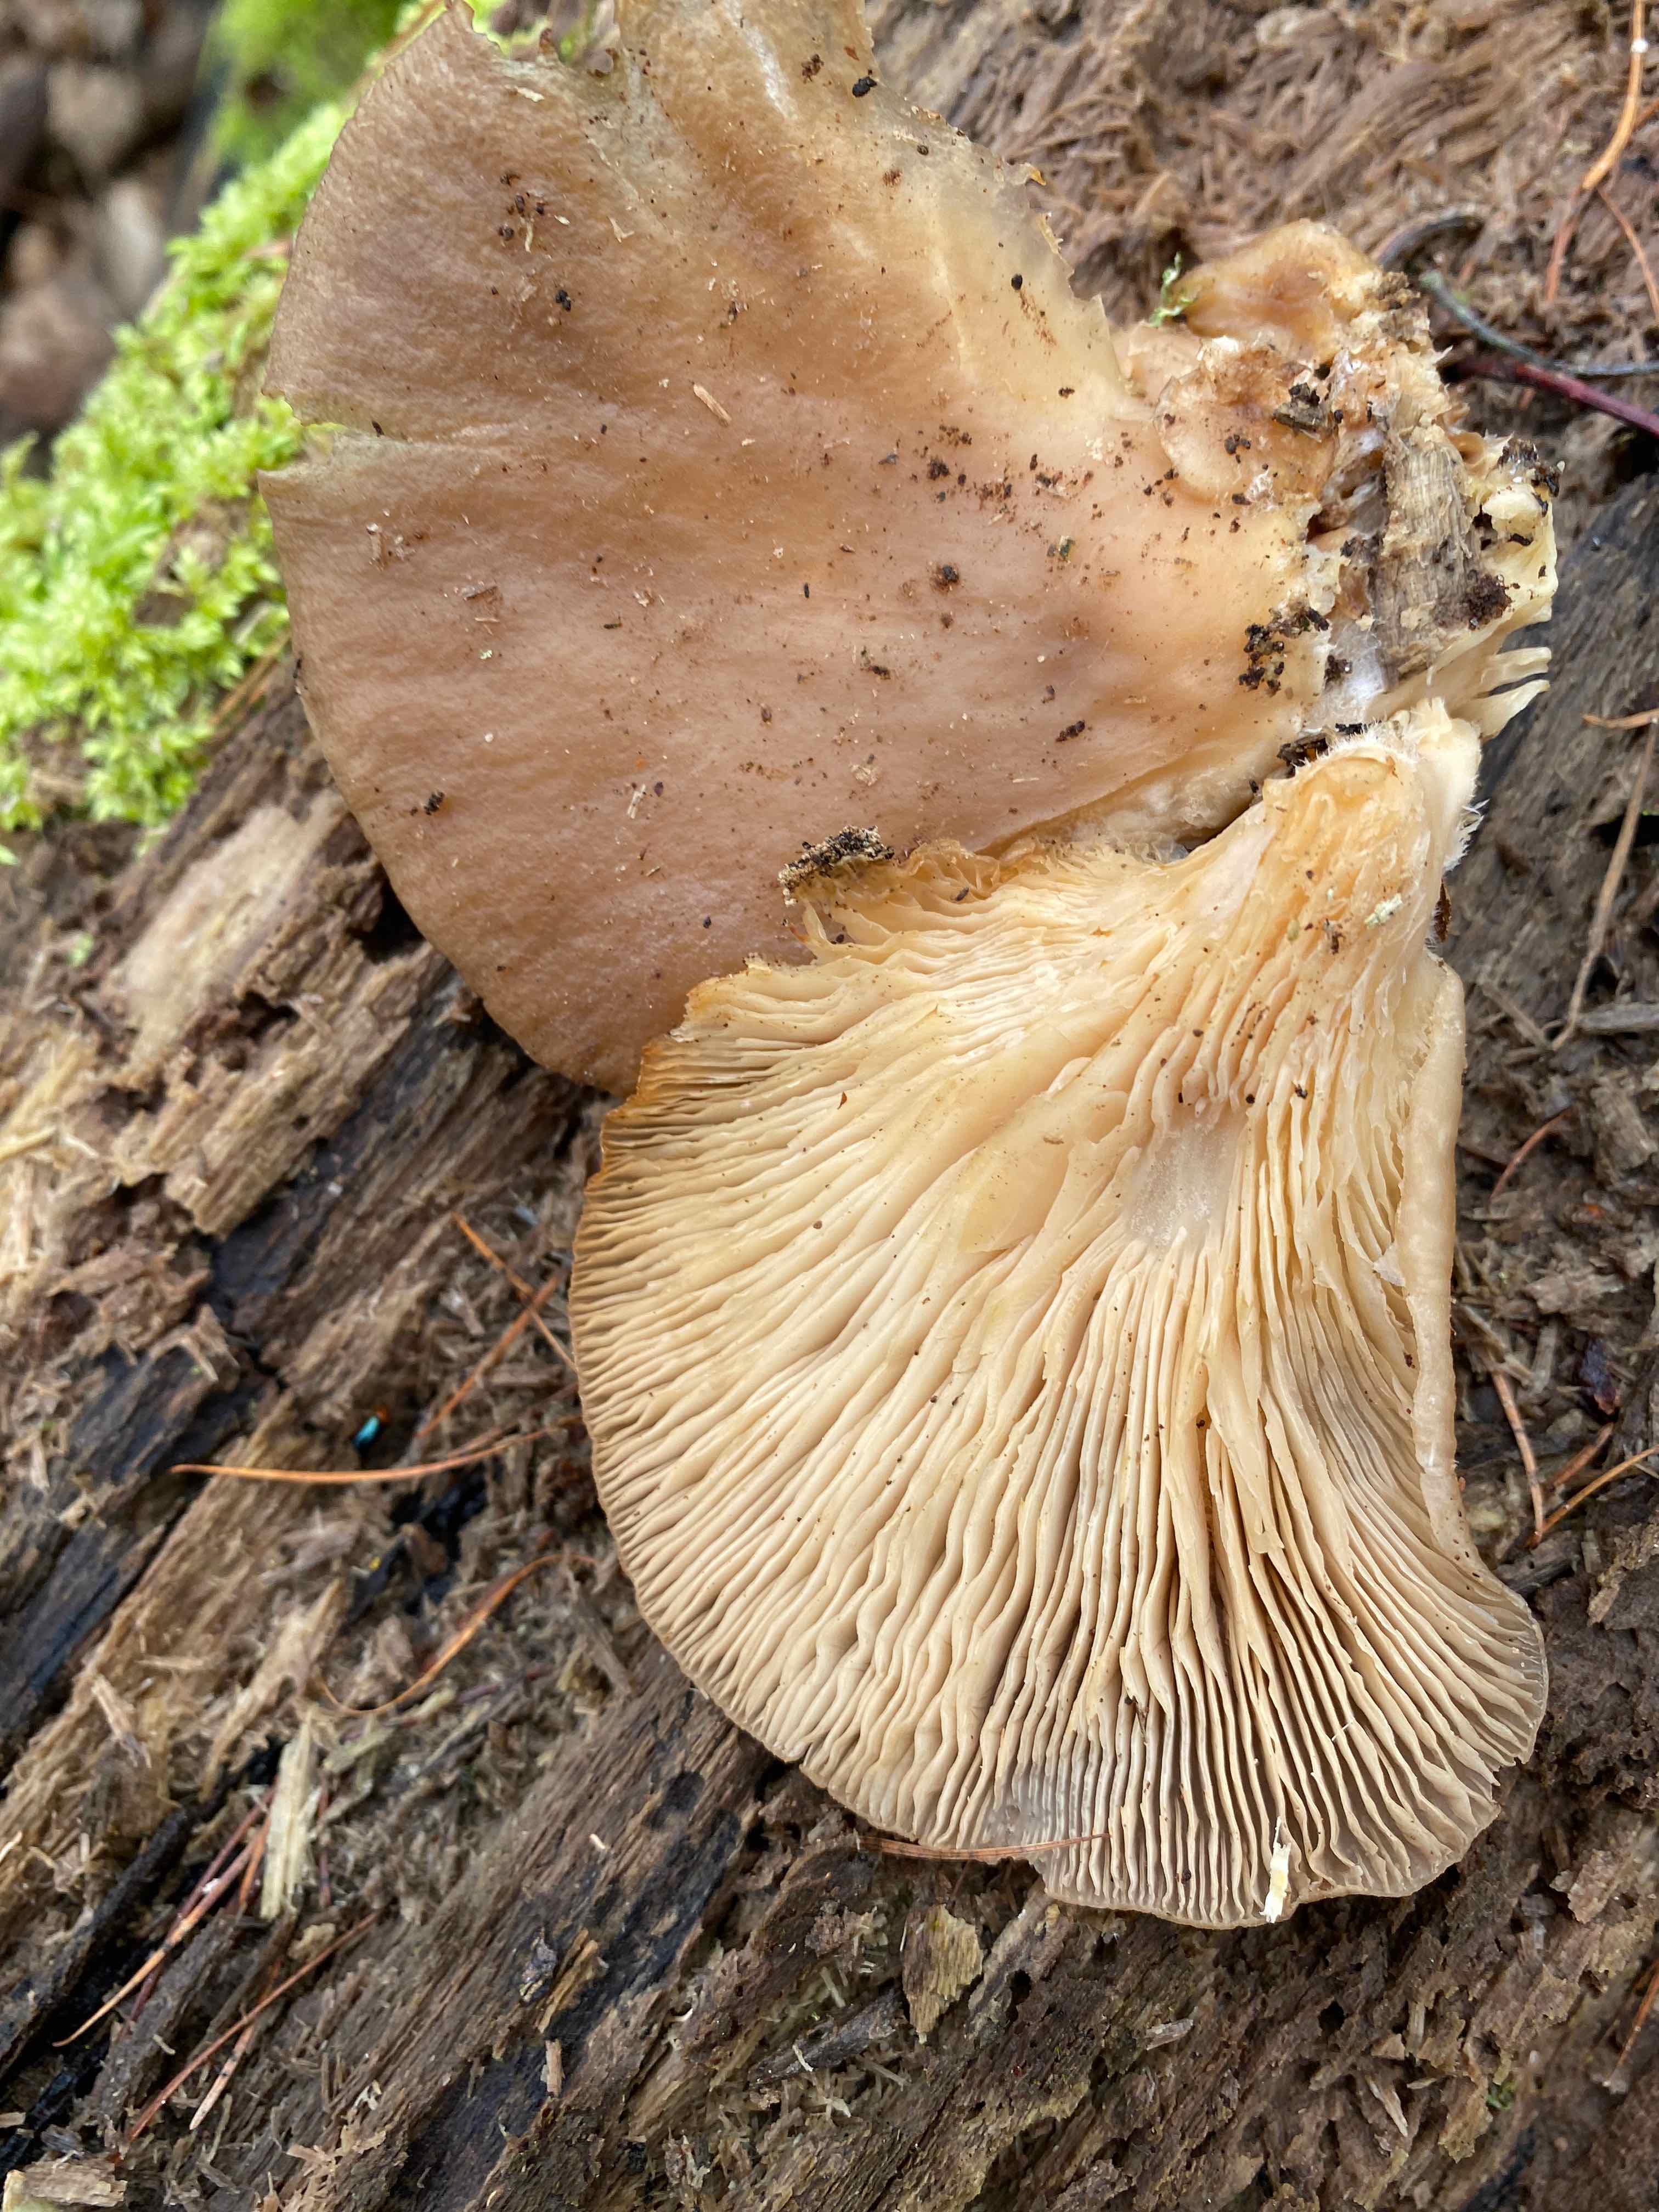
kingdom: Fungi
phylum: Basidiomycota
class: Agaricomycetes
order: Agaricales
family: Pleurotaceae
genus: Pleurotus
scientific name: Pleurotus ostreatus
